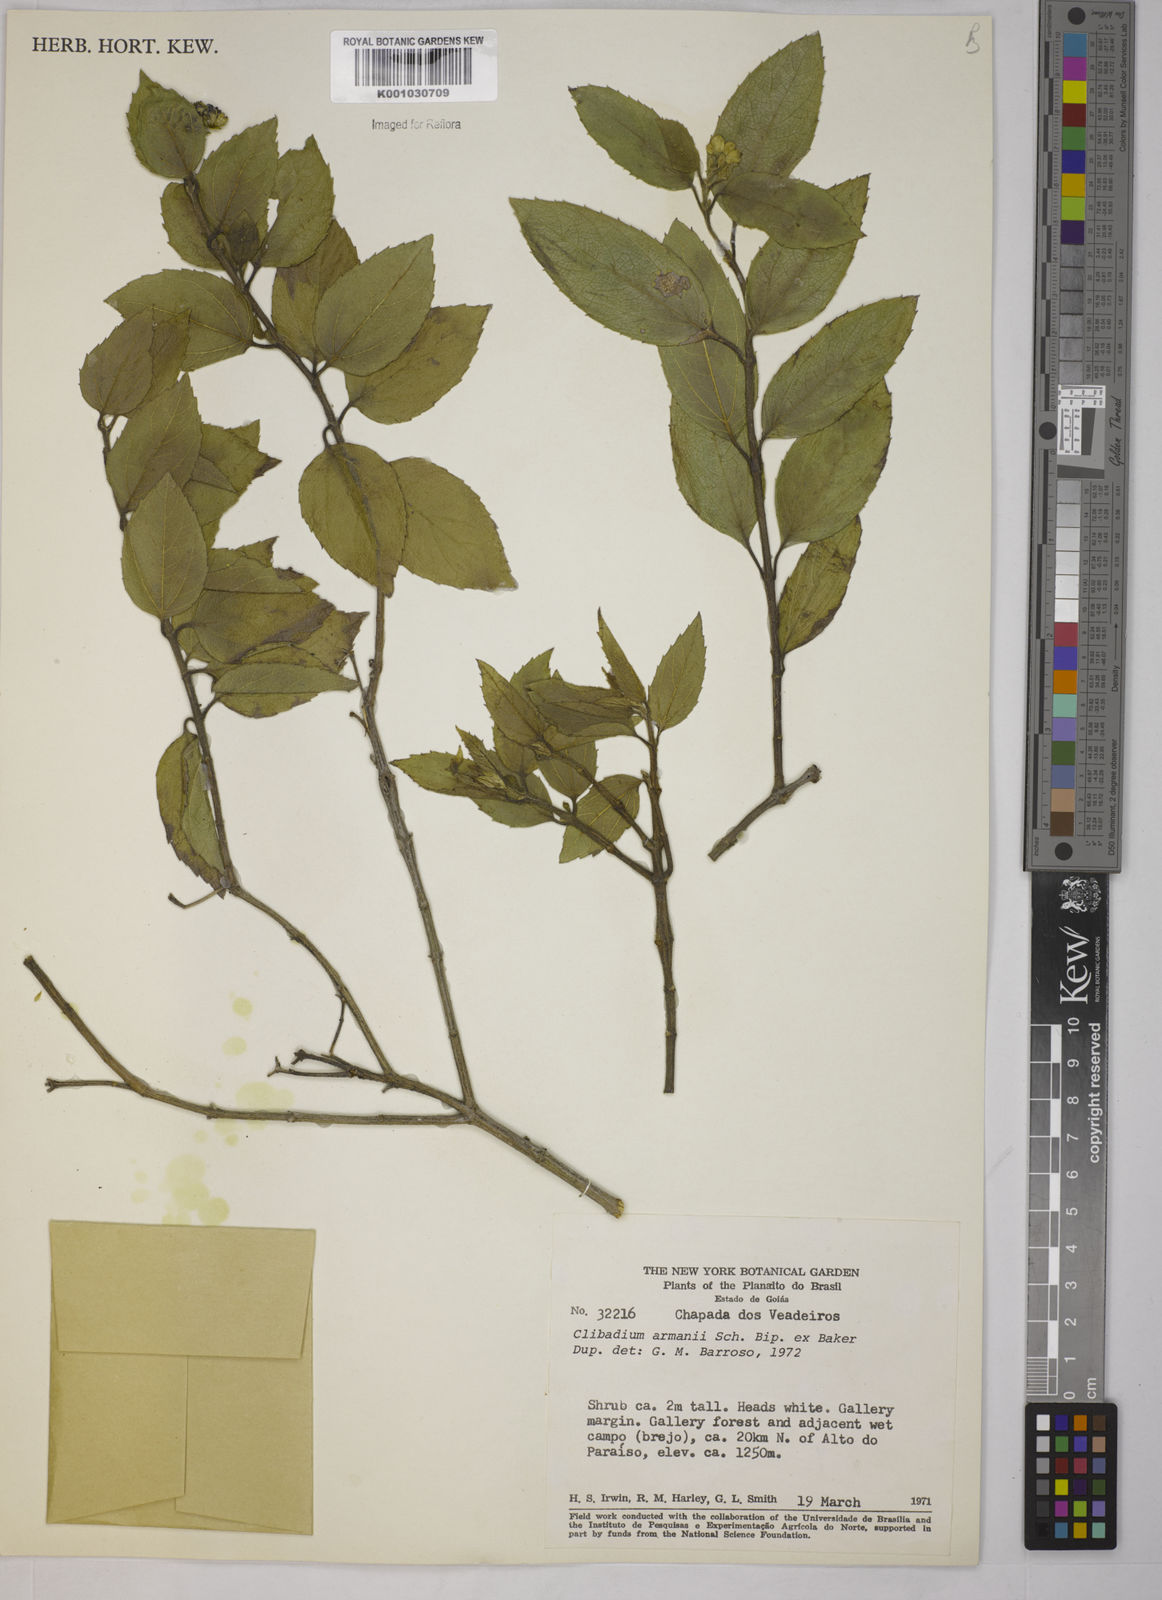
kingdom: Plantae
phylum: Tracheophyta
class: Magnoliopsida
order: Asterales
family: Asteraceae
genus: Clibadium
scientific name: Clibadium armanii
